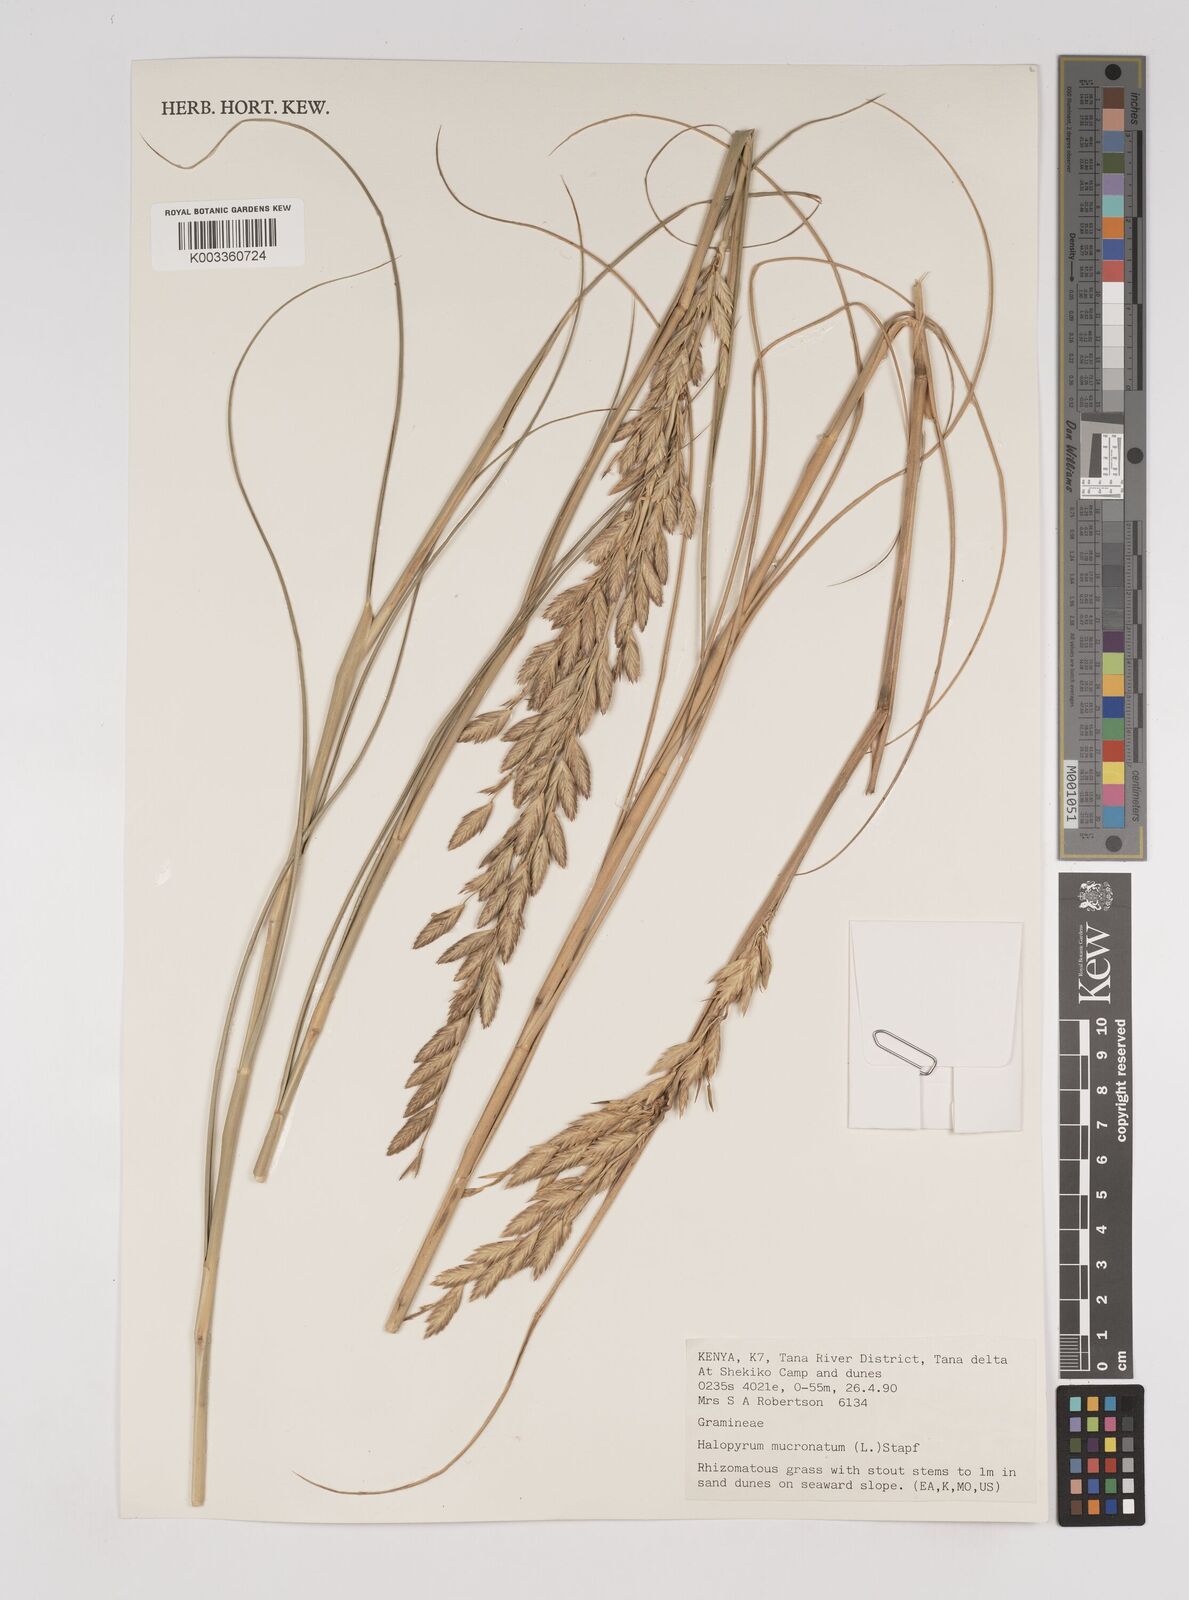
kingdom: Plantae
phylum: Tracheophyta
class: Liliopsida
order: Poales
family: Poaceae
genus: Halopyrum
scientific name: Halopyrum mucronatum
